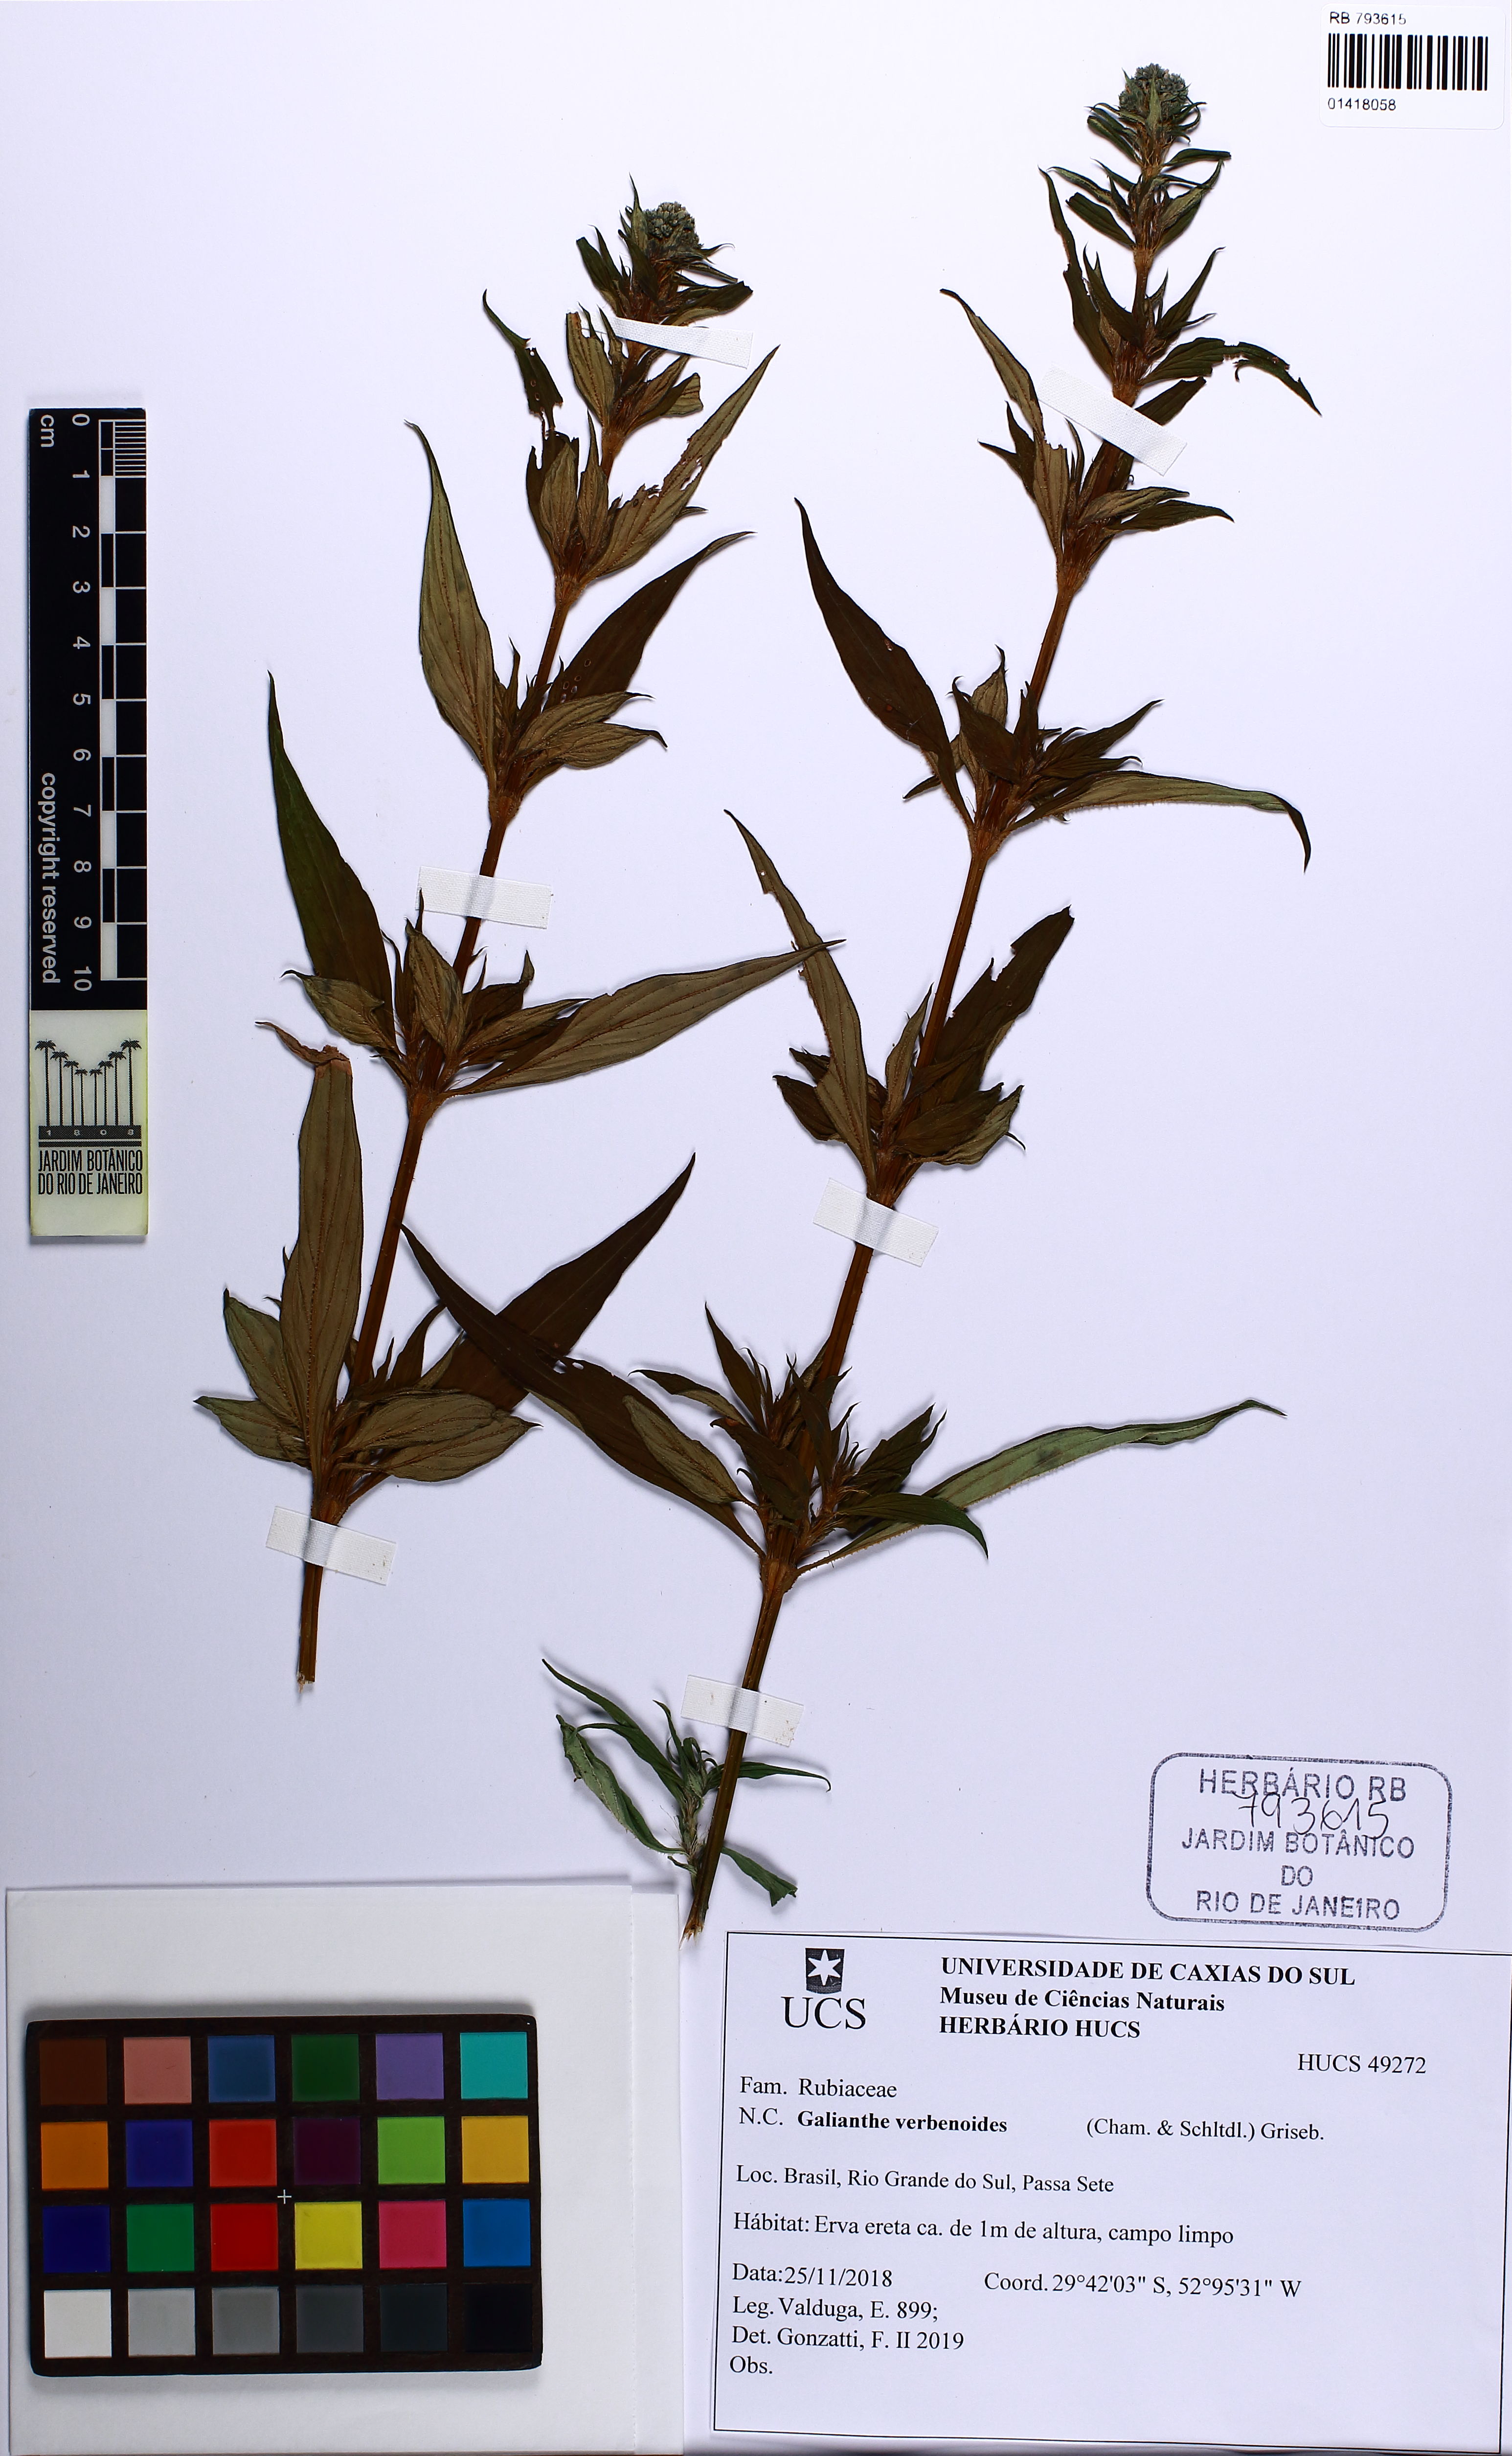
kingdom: Plantae
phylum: Tracheophyta
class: Magnoliopsida
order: Gentianales
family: Rubiaceae
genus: Galianthe
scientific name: Galianthe pseudopeciolata
